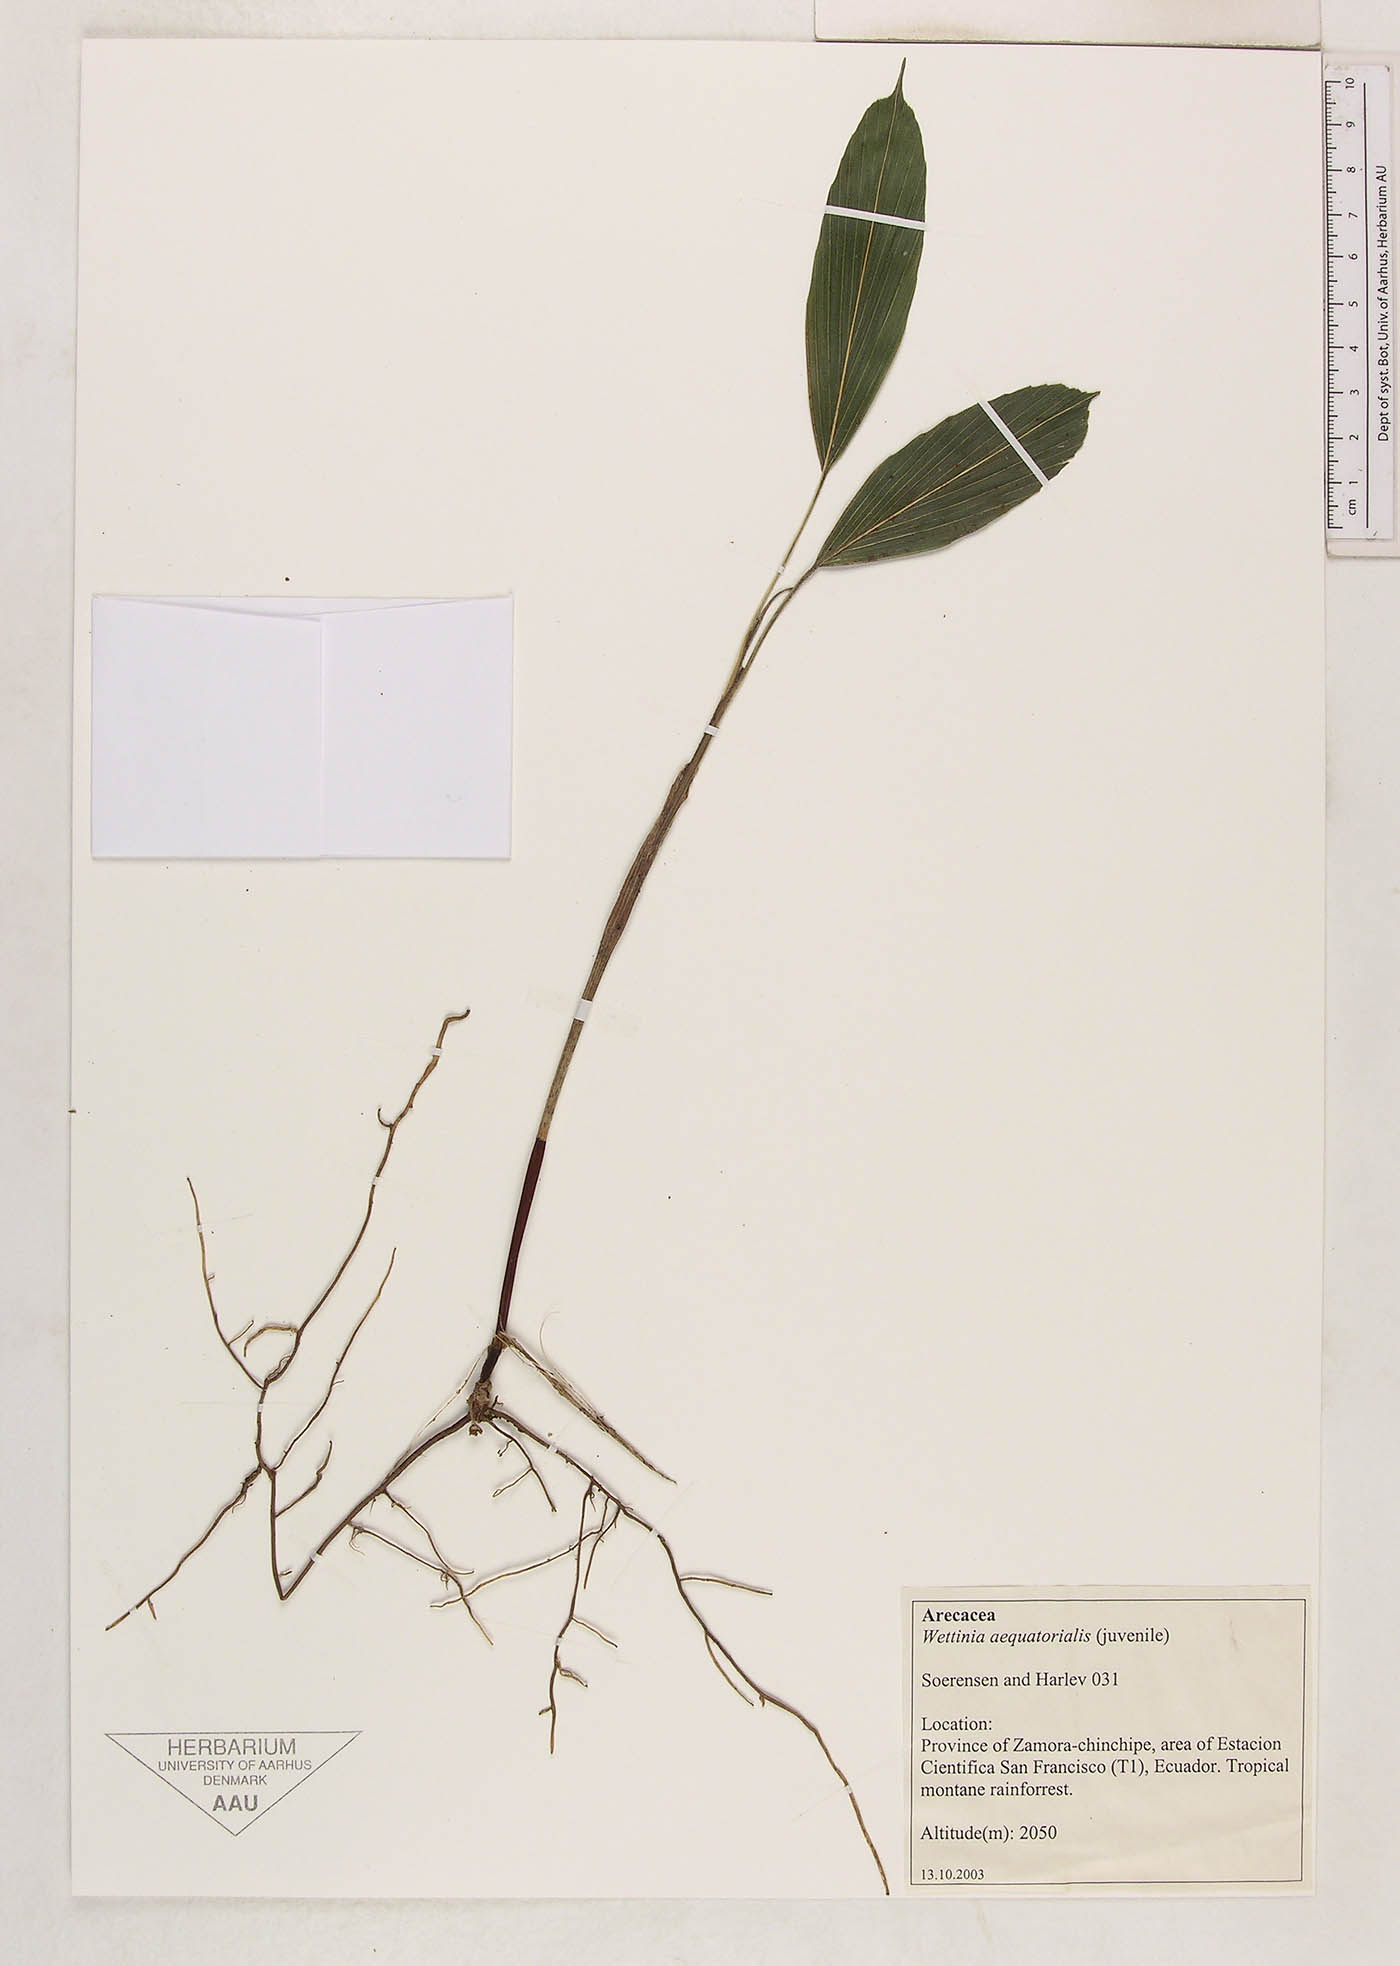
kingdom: Plantae
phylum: Tracheophyta
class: Liliopsida
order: Arecales
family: Arecaceae
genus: Wettinia
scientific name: Wettinia aequatorialis
